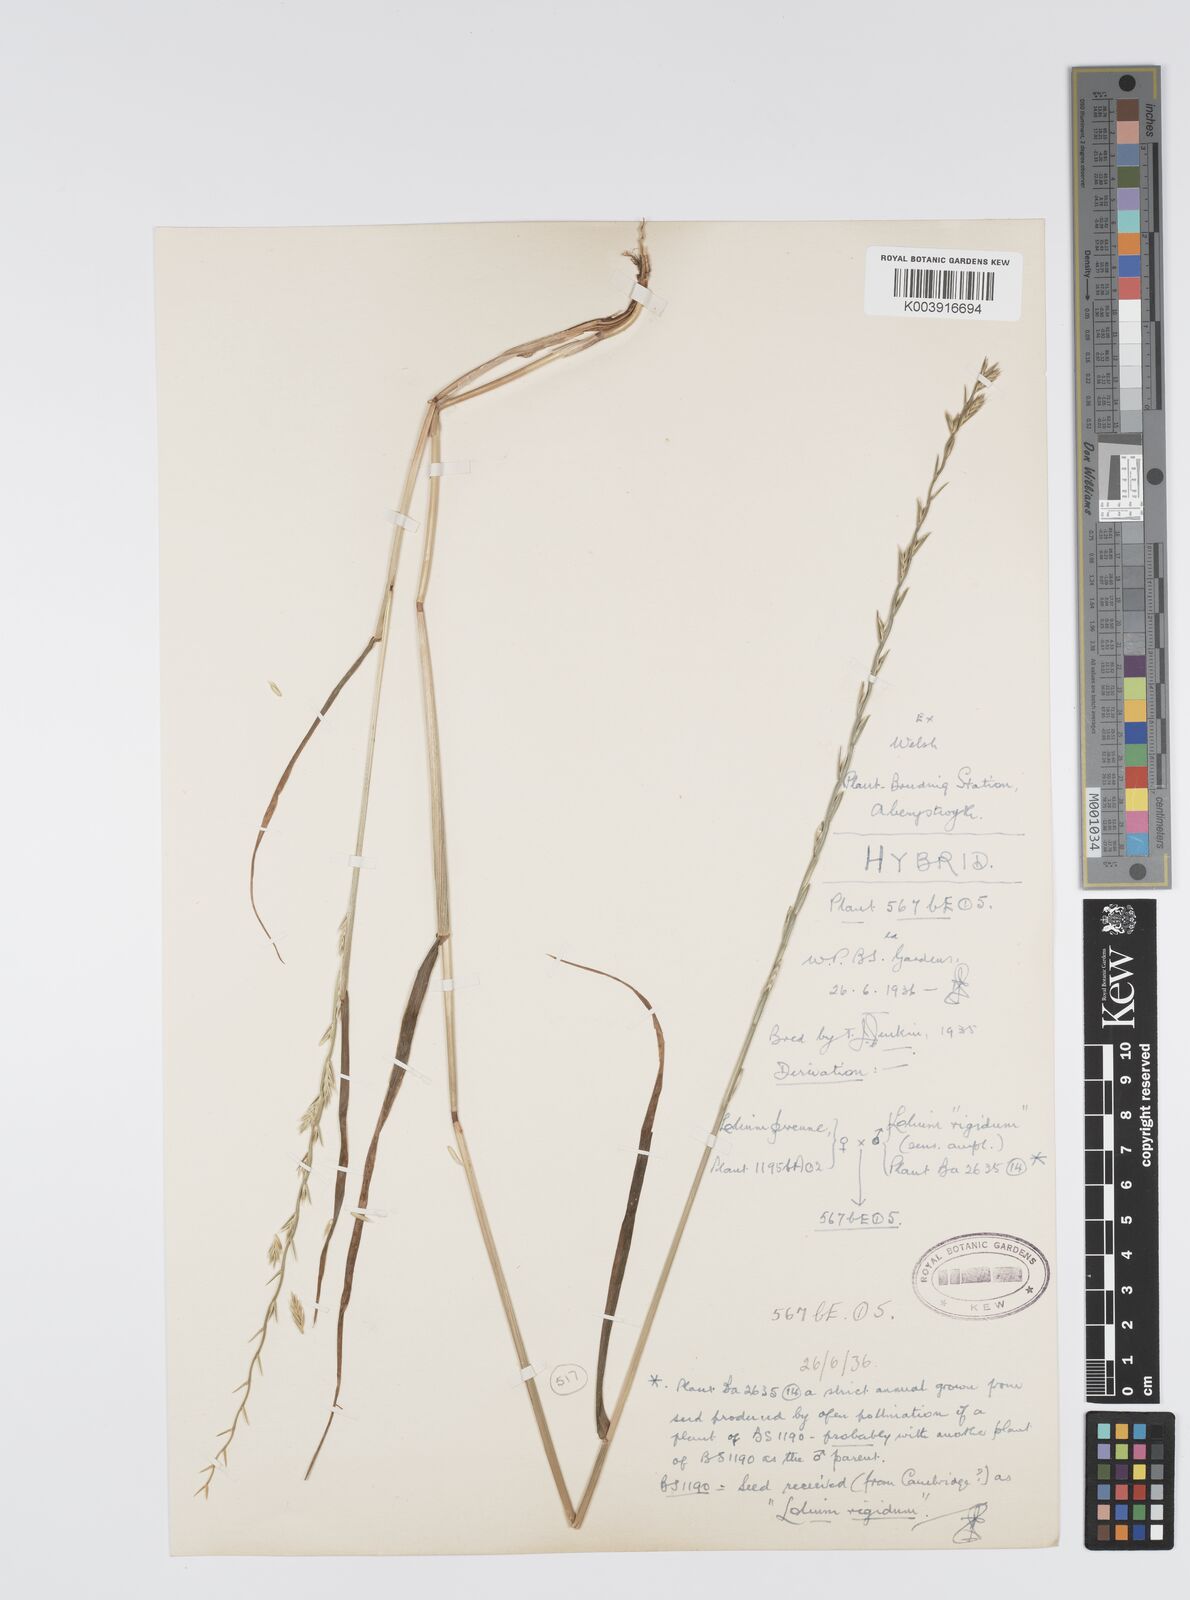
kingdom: Plantae
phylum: Tracheophyta
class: Liliopsida
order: Poales
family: Poaceae
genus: Lolium
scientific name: Lolium perenne
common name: Perennial ryegrass
